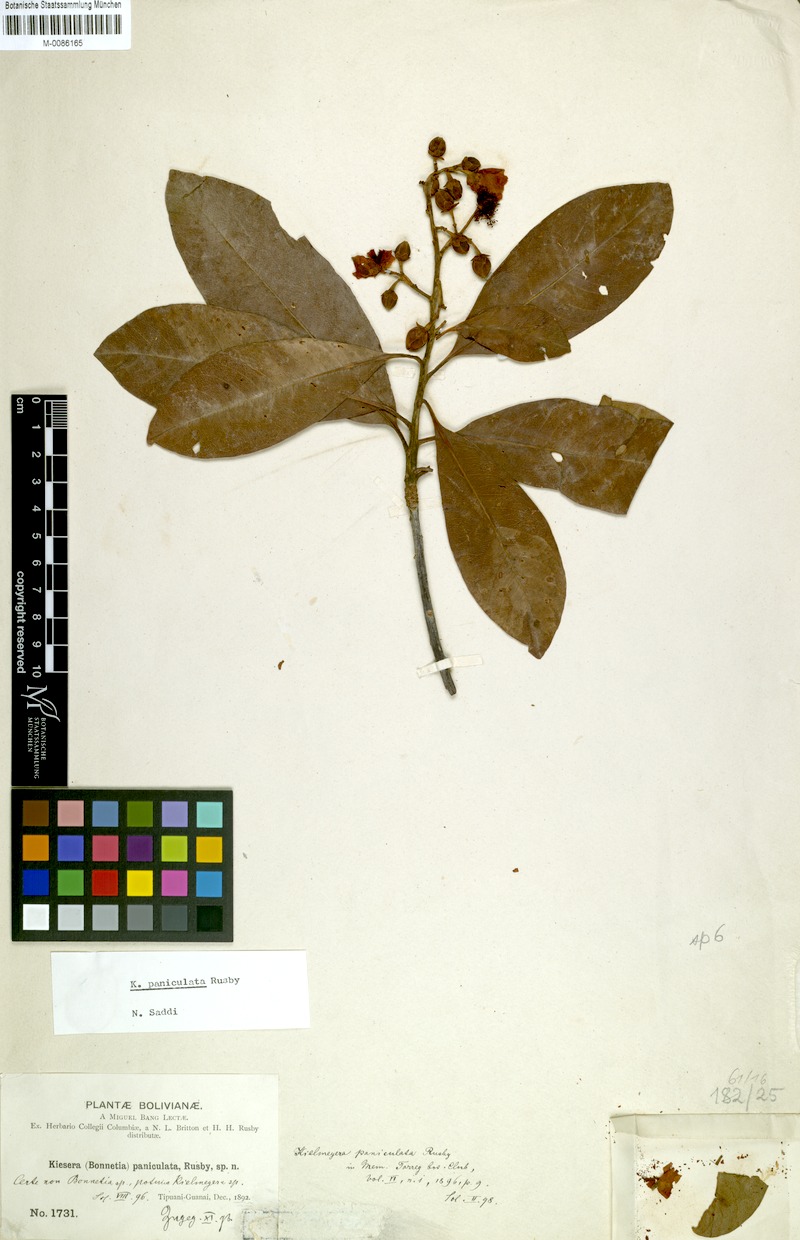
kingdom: Plantae
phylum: Tracheophyta
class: Magnoliopsida
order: Malpighiales
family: Calophyllaceae
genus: Kielmeyera
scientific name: Kielmeyera paniculata
